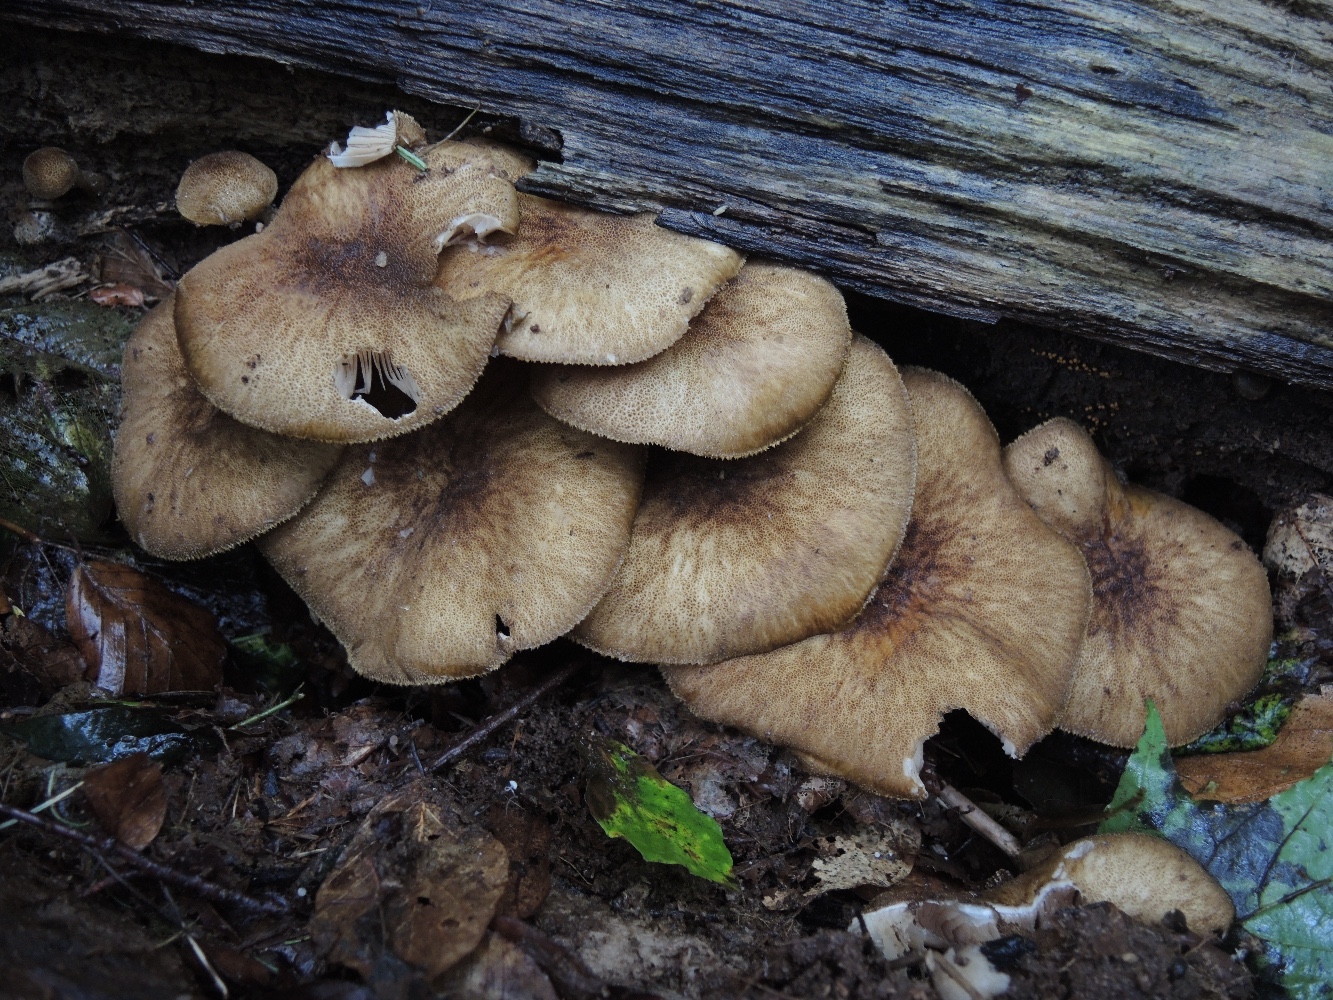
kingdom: Fungi
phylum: Basidiomycota
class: Agaricomycetes
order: Agaricales
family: Pluteaceae
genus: Pluteus
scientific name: Pluteus umbrosus
